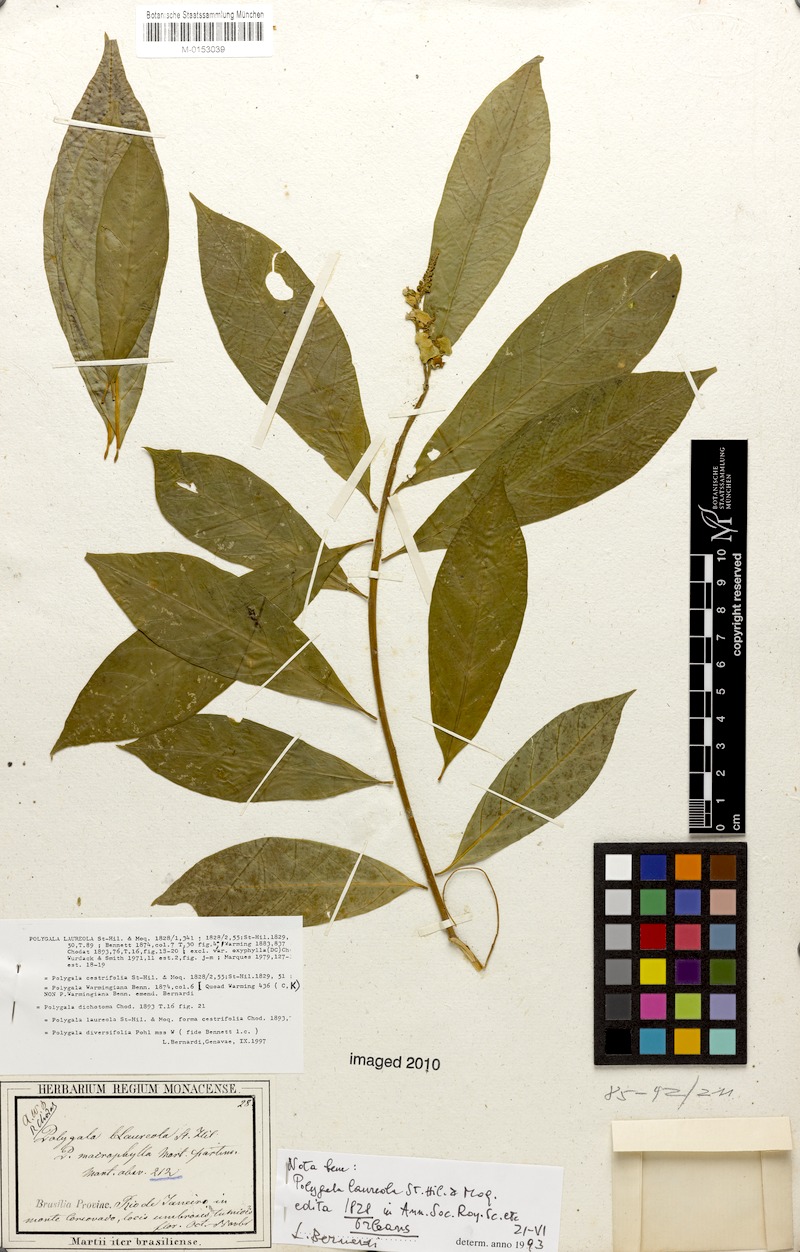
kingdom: Plantae
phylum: Tracheophyta
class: Magnoliopsida
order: Fabales
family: Polygalaceae
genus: Caamembeca
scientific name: Caamembeca salicifolia
